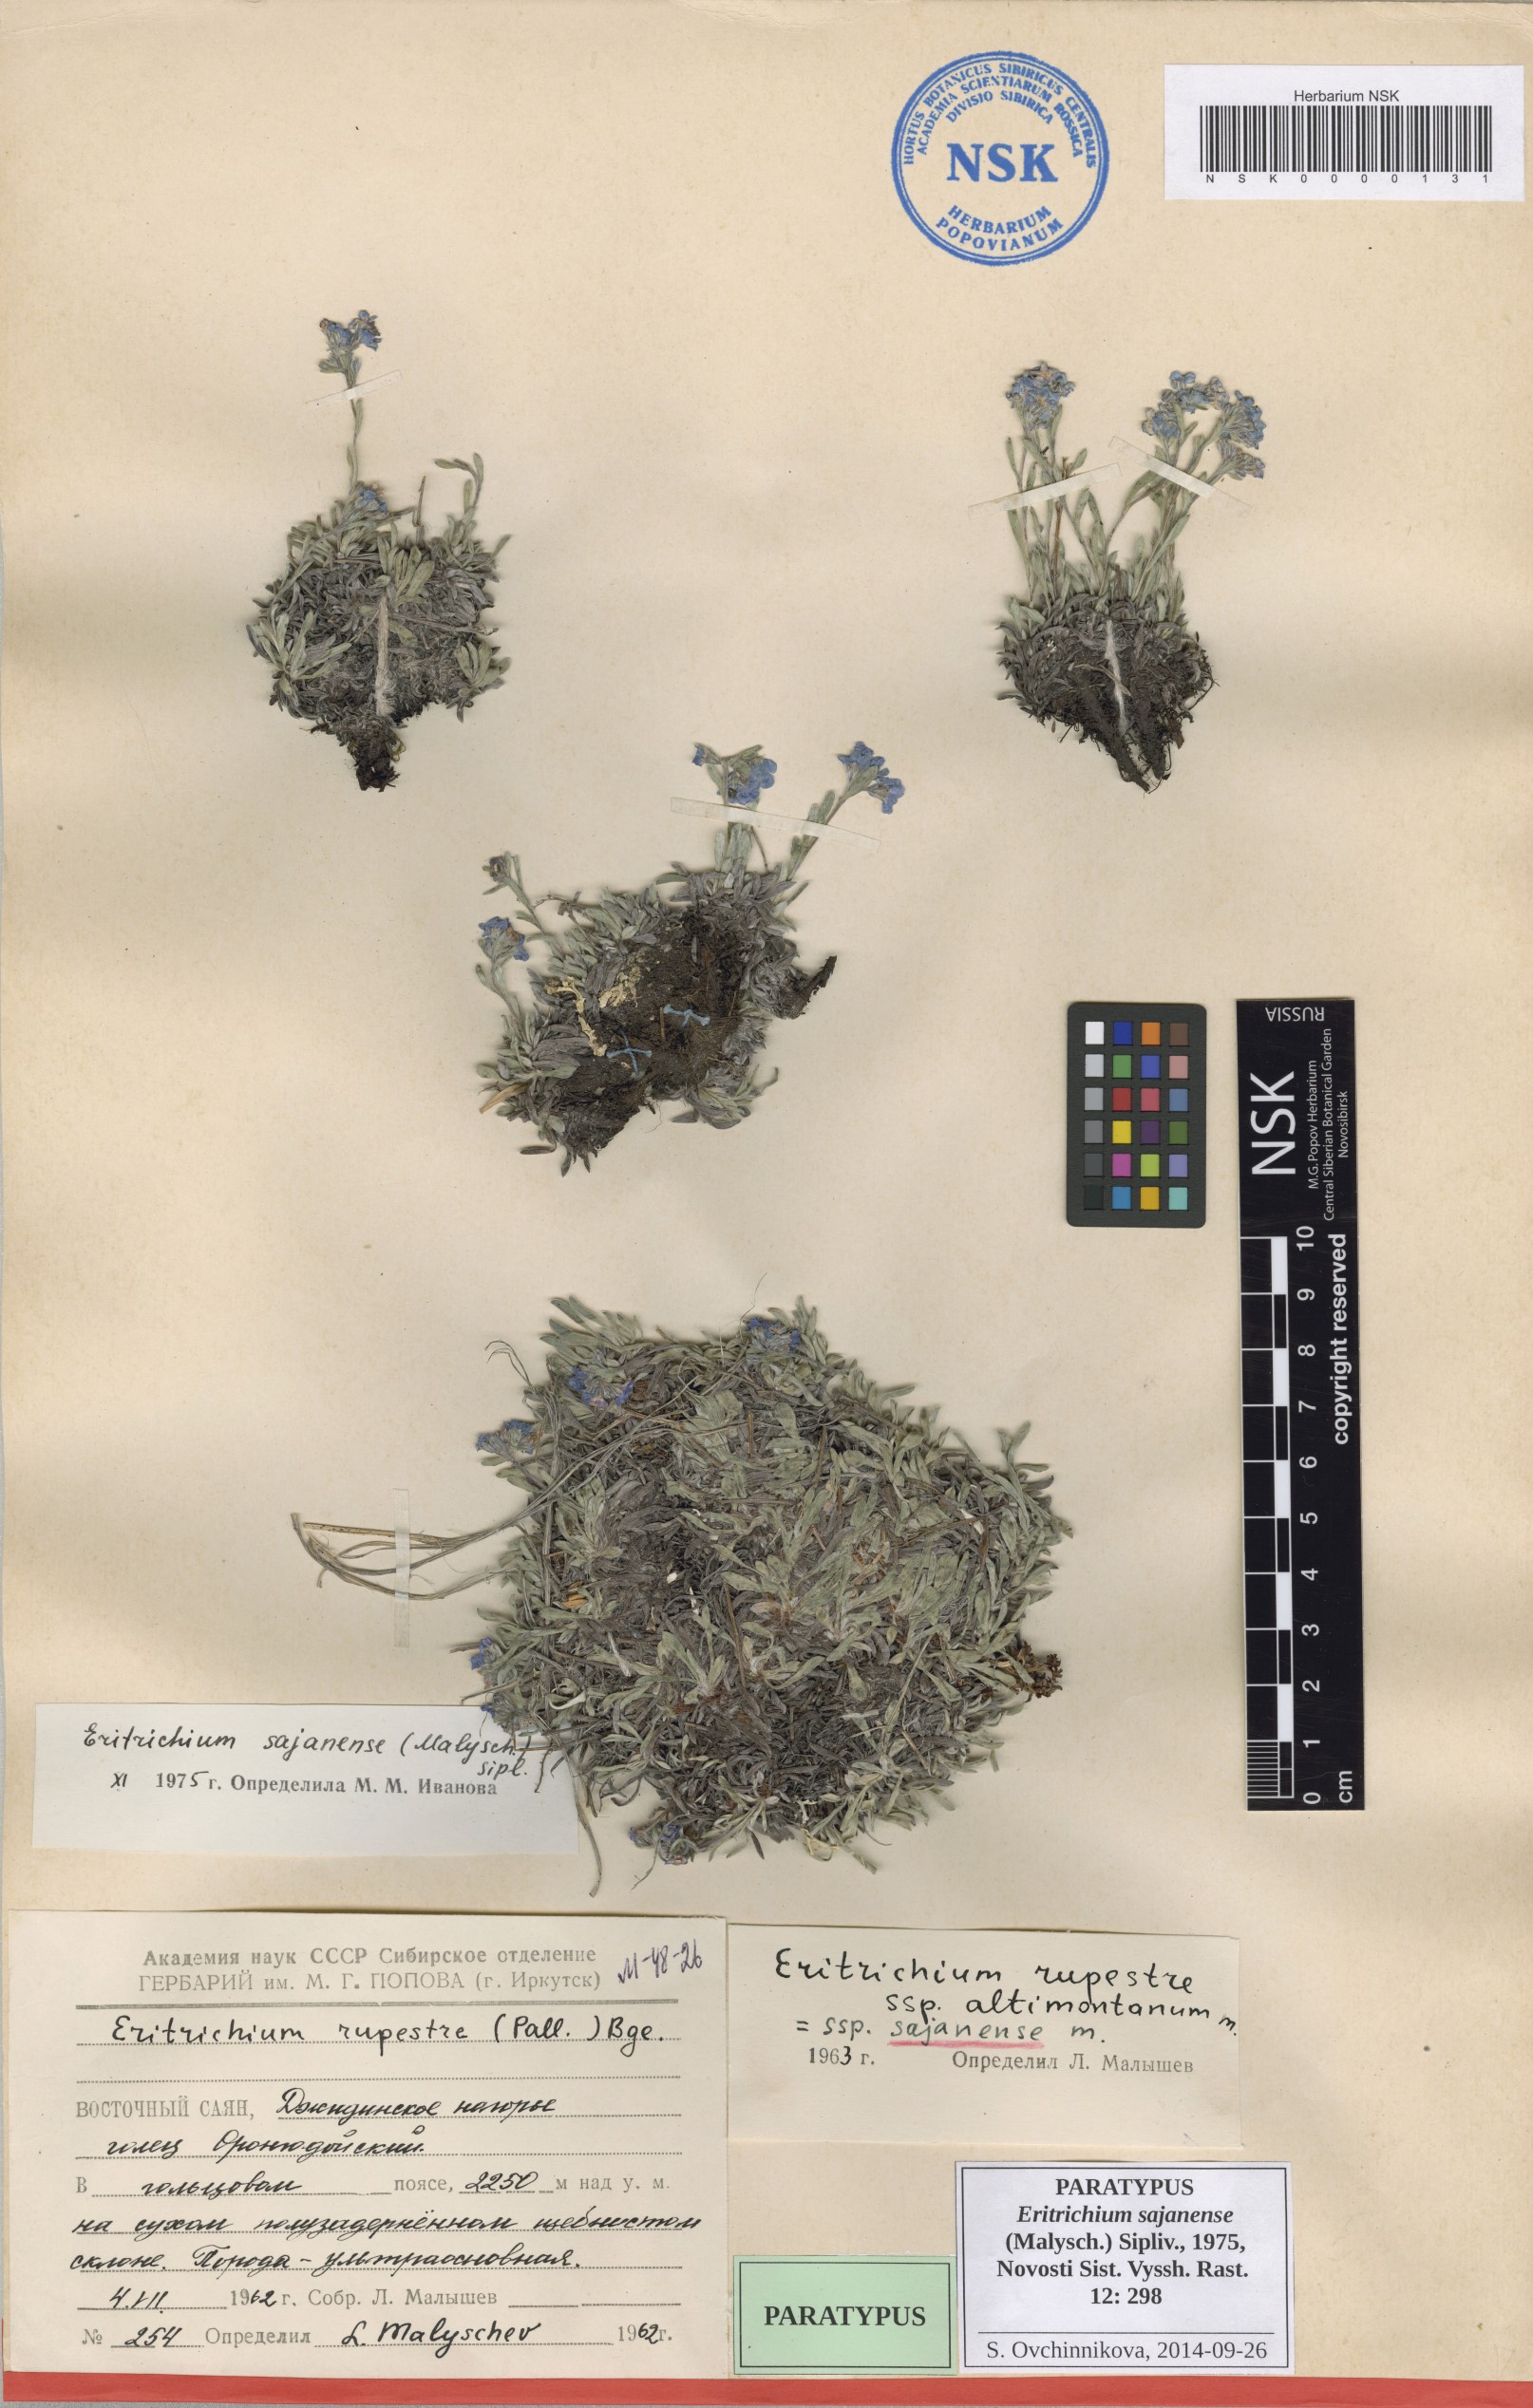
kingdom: Plantae
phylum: Tracheophyta
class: Magnoliopsida
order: Boraginales
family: Boraginaceae
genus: Eritrichium
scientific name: Eritrichium sajanense
